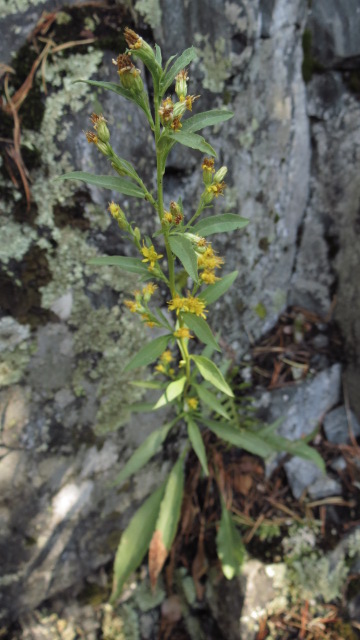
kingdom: Plantae
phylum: Tracheophyta
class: Magnoliopsida
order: Asterales
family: Asteraceae
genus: Solidago
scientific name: Solidago virgaurea
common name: Goldenrod
